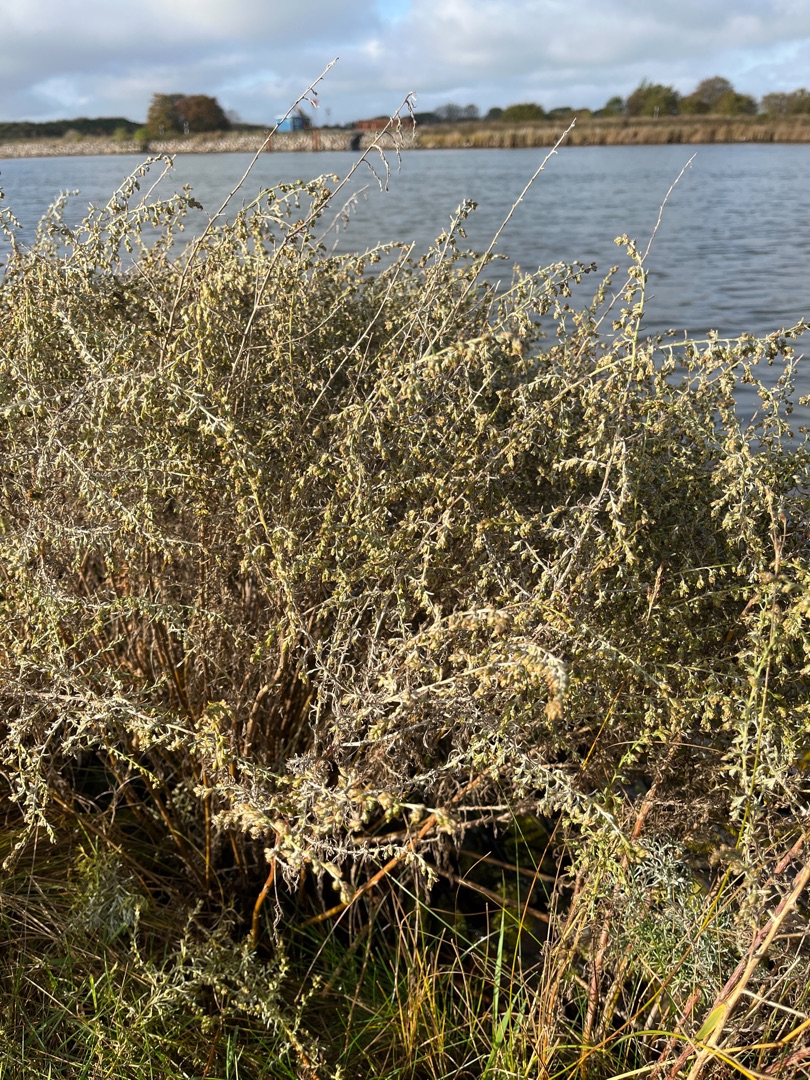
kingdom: Plantae
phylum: Tracheophyta
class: Magnoliopsida
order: Asterales
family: Asteraceae
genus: Artemisia
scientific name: Artemisia maritima
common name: Strandmalurt
